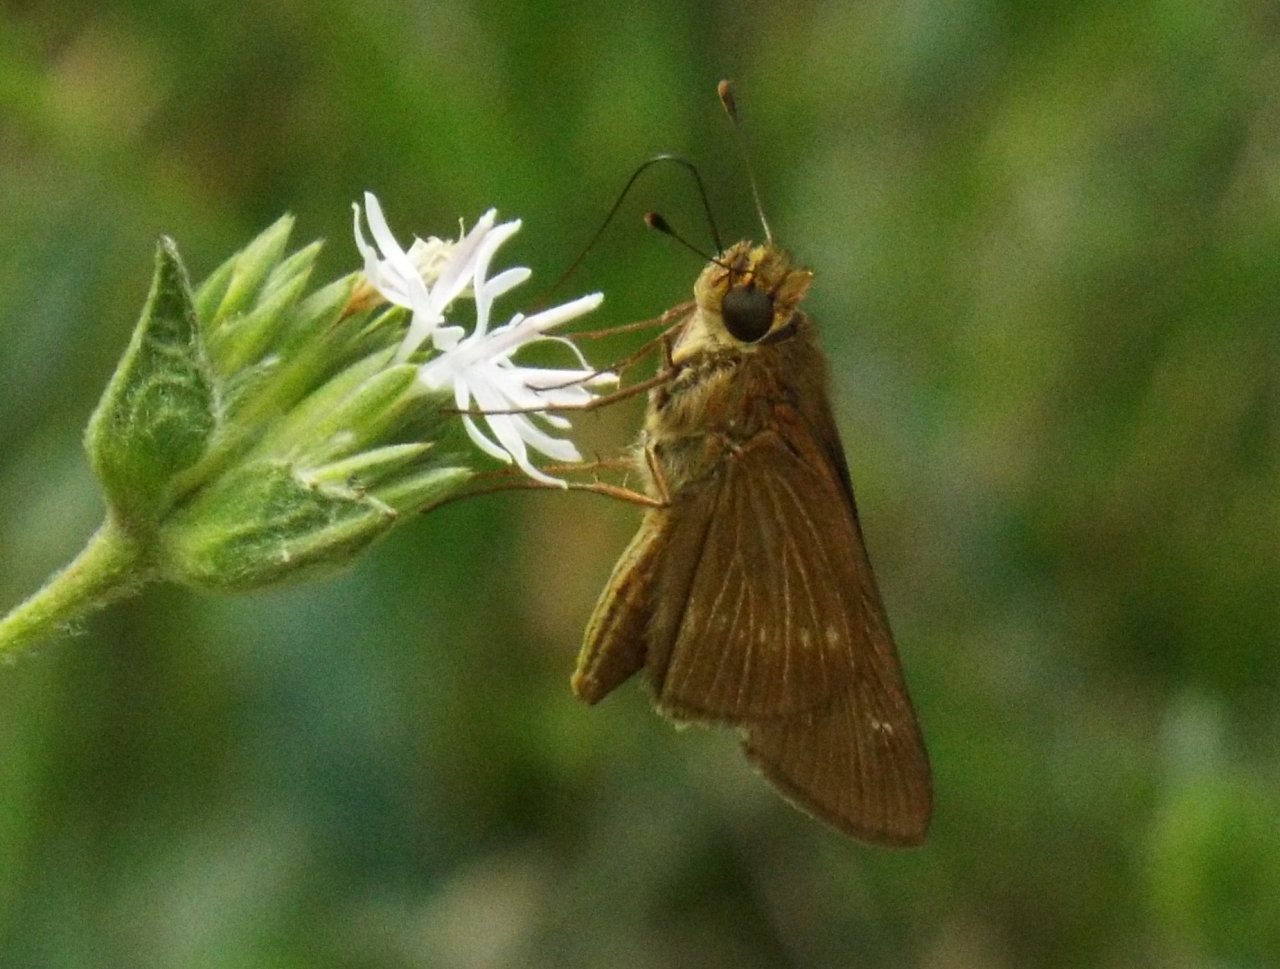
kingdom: Animalia
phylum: Arthropoda
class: Insecta
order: Lepidoptera
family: Hesperiidae
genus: Panoquina
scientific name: Panoquina ocola
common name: Ocola Skipper
